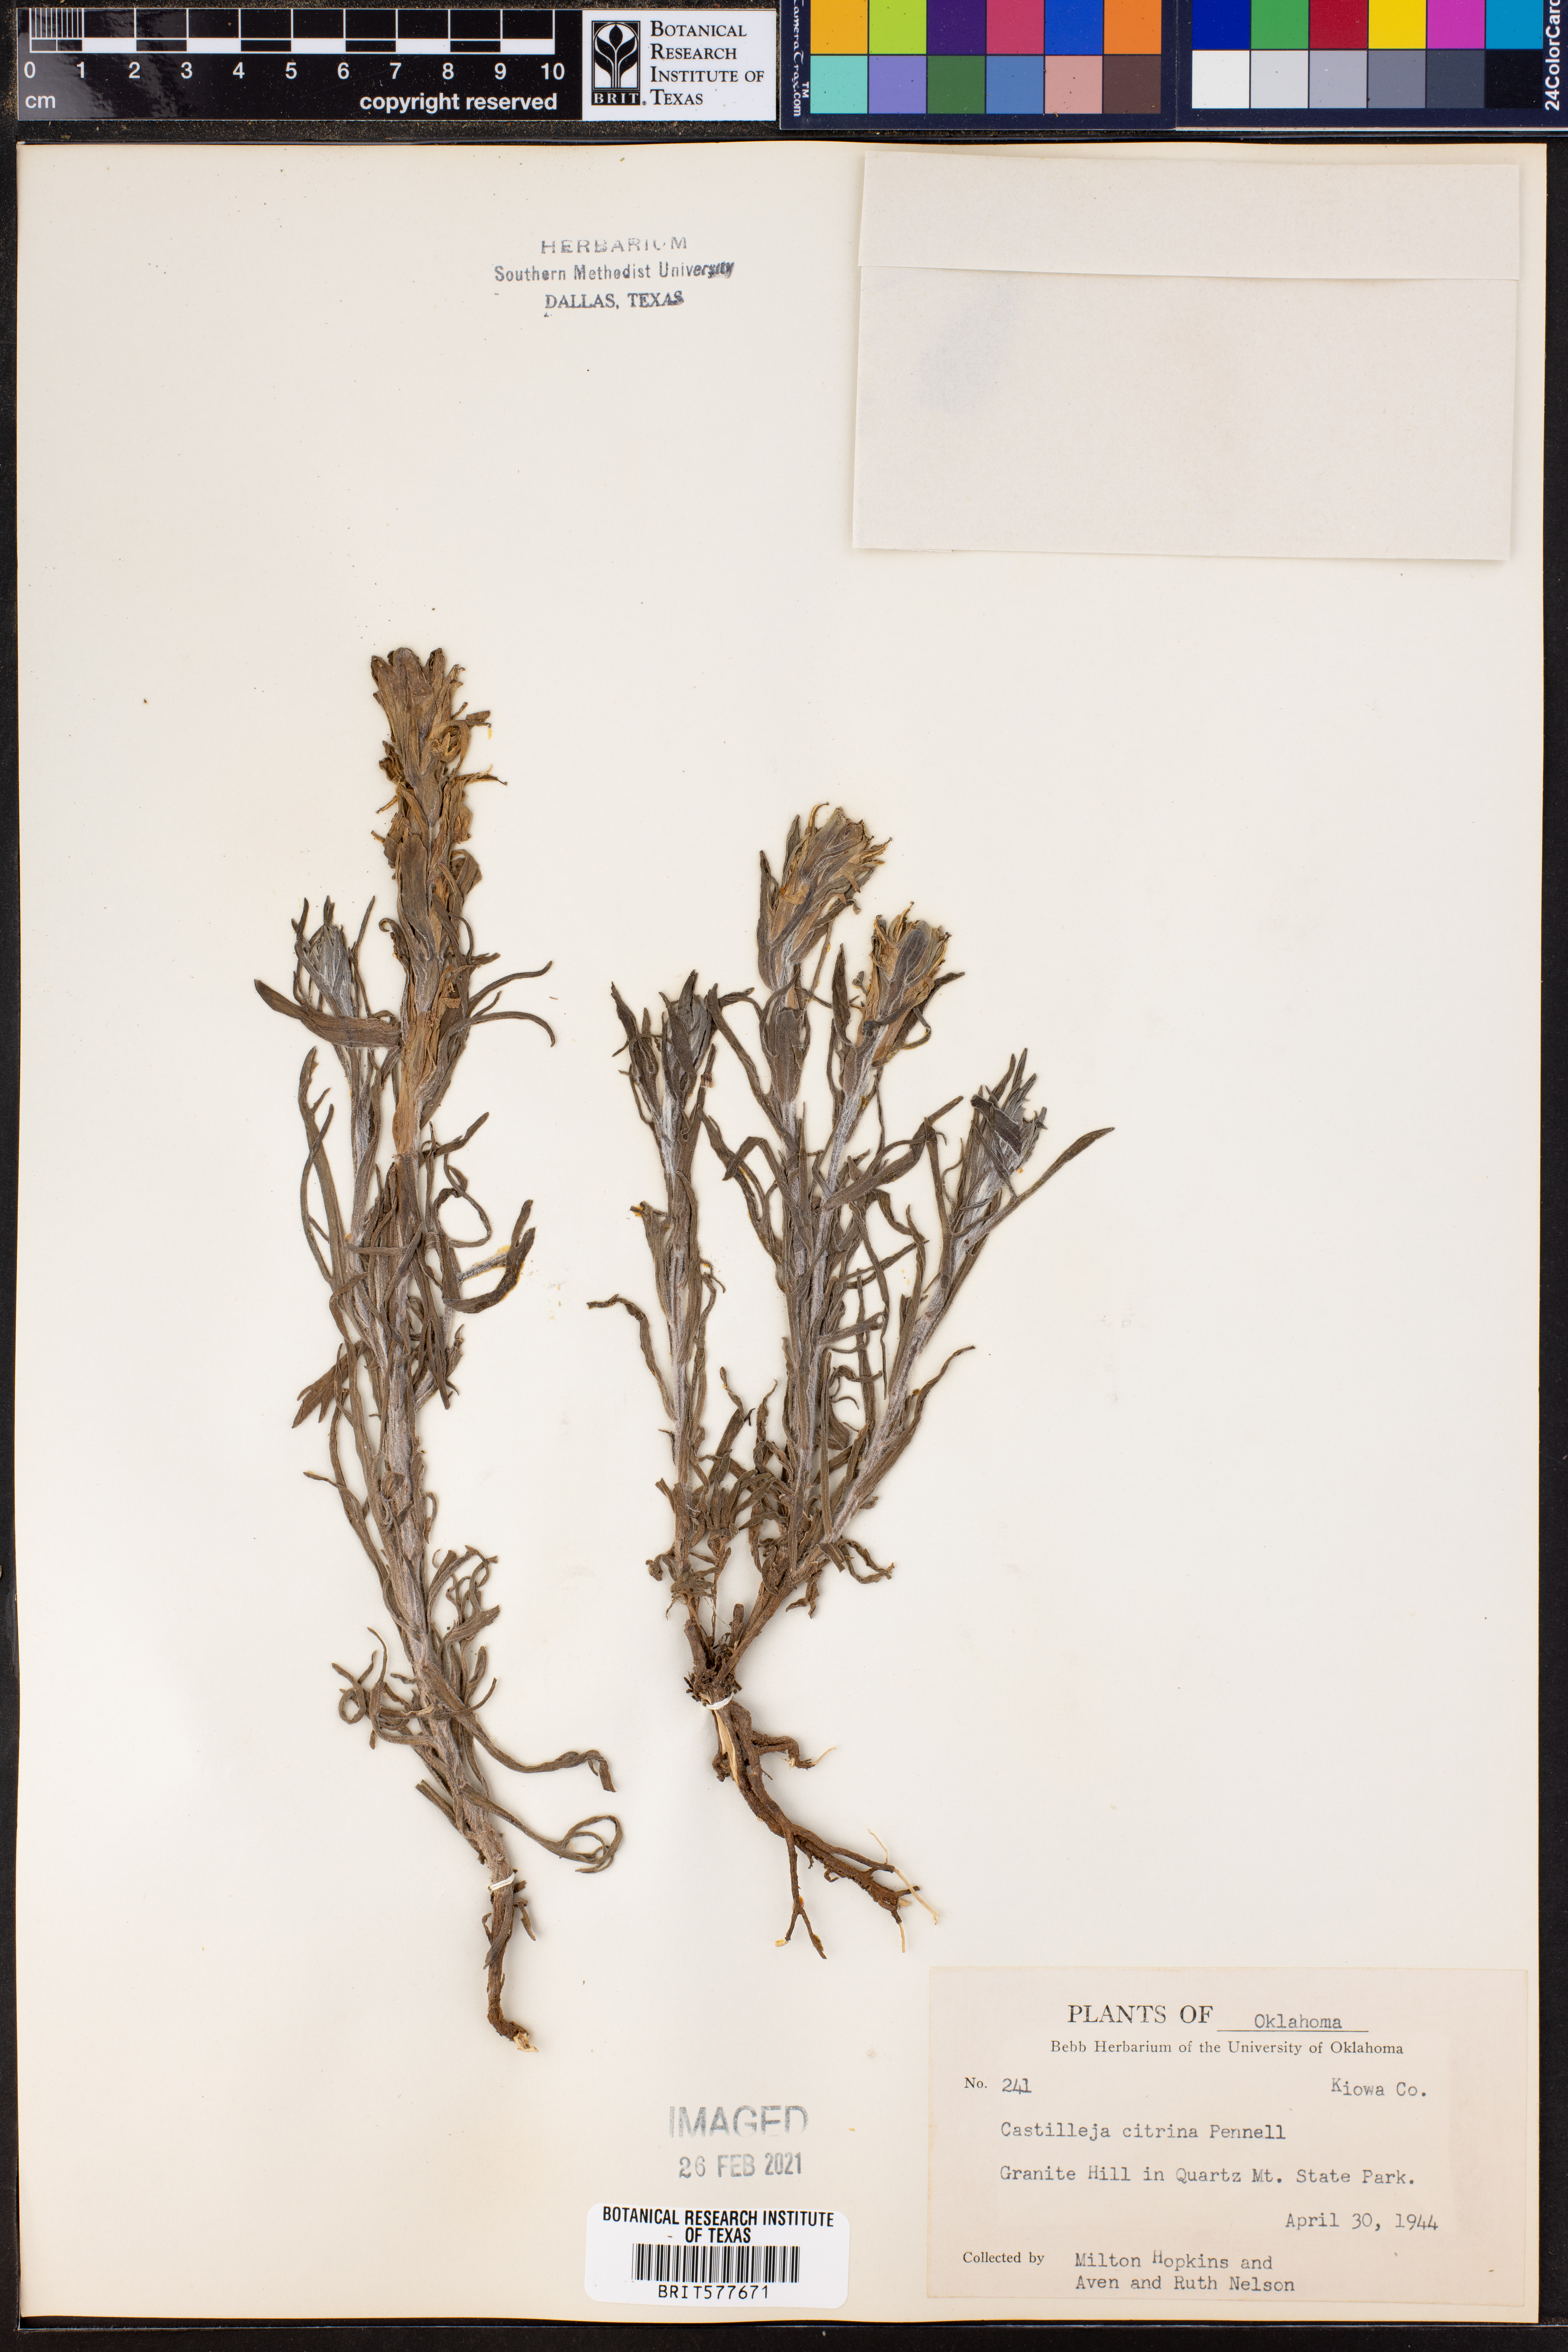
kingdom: Plantae
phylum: Tracheophyta
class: Magnoliopsida
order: Lamiales
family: Orobanchaceae
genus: Castilleja
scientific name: Castilleja citrina
